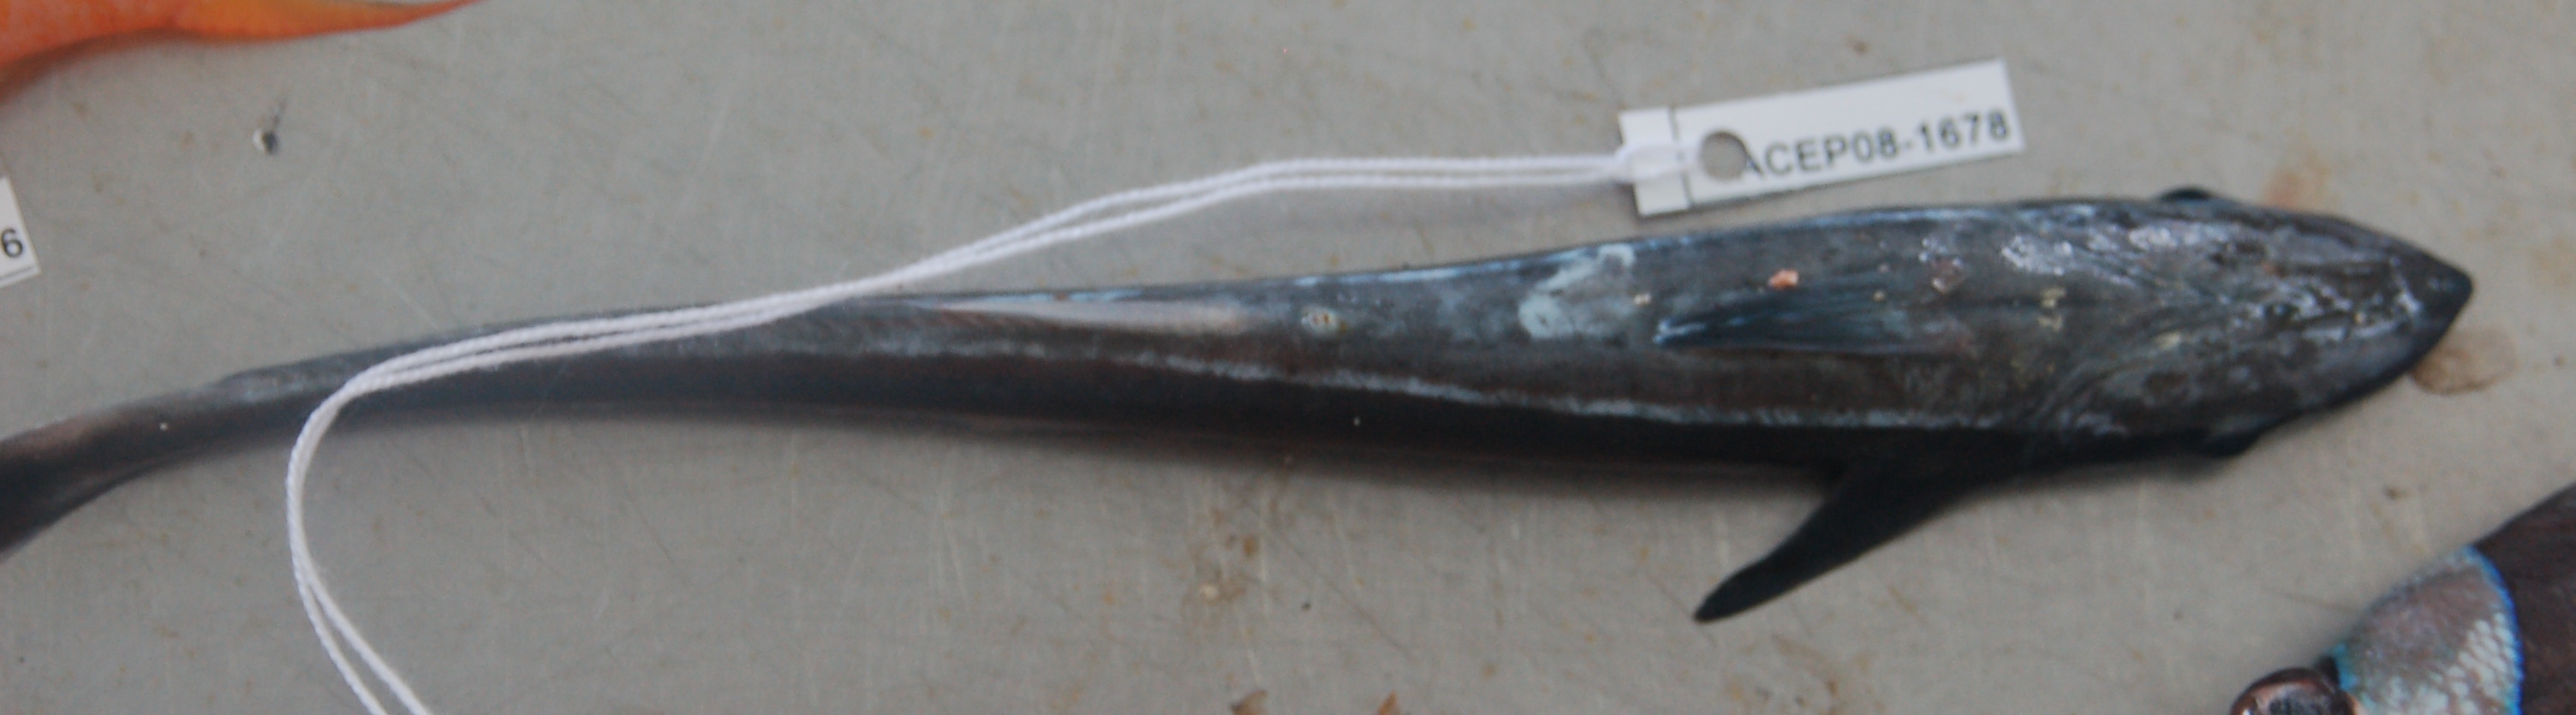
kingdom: Animalia
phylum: Chordata
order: Perciformes
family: Echeneidae
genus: Echeneis
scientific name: Echeneis naucrates
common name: Sharksucker
